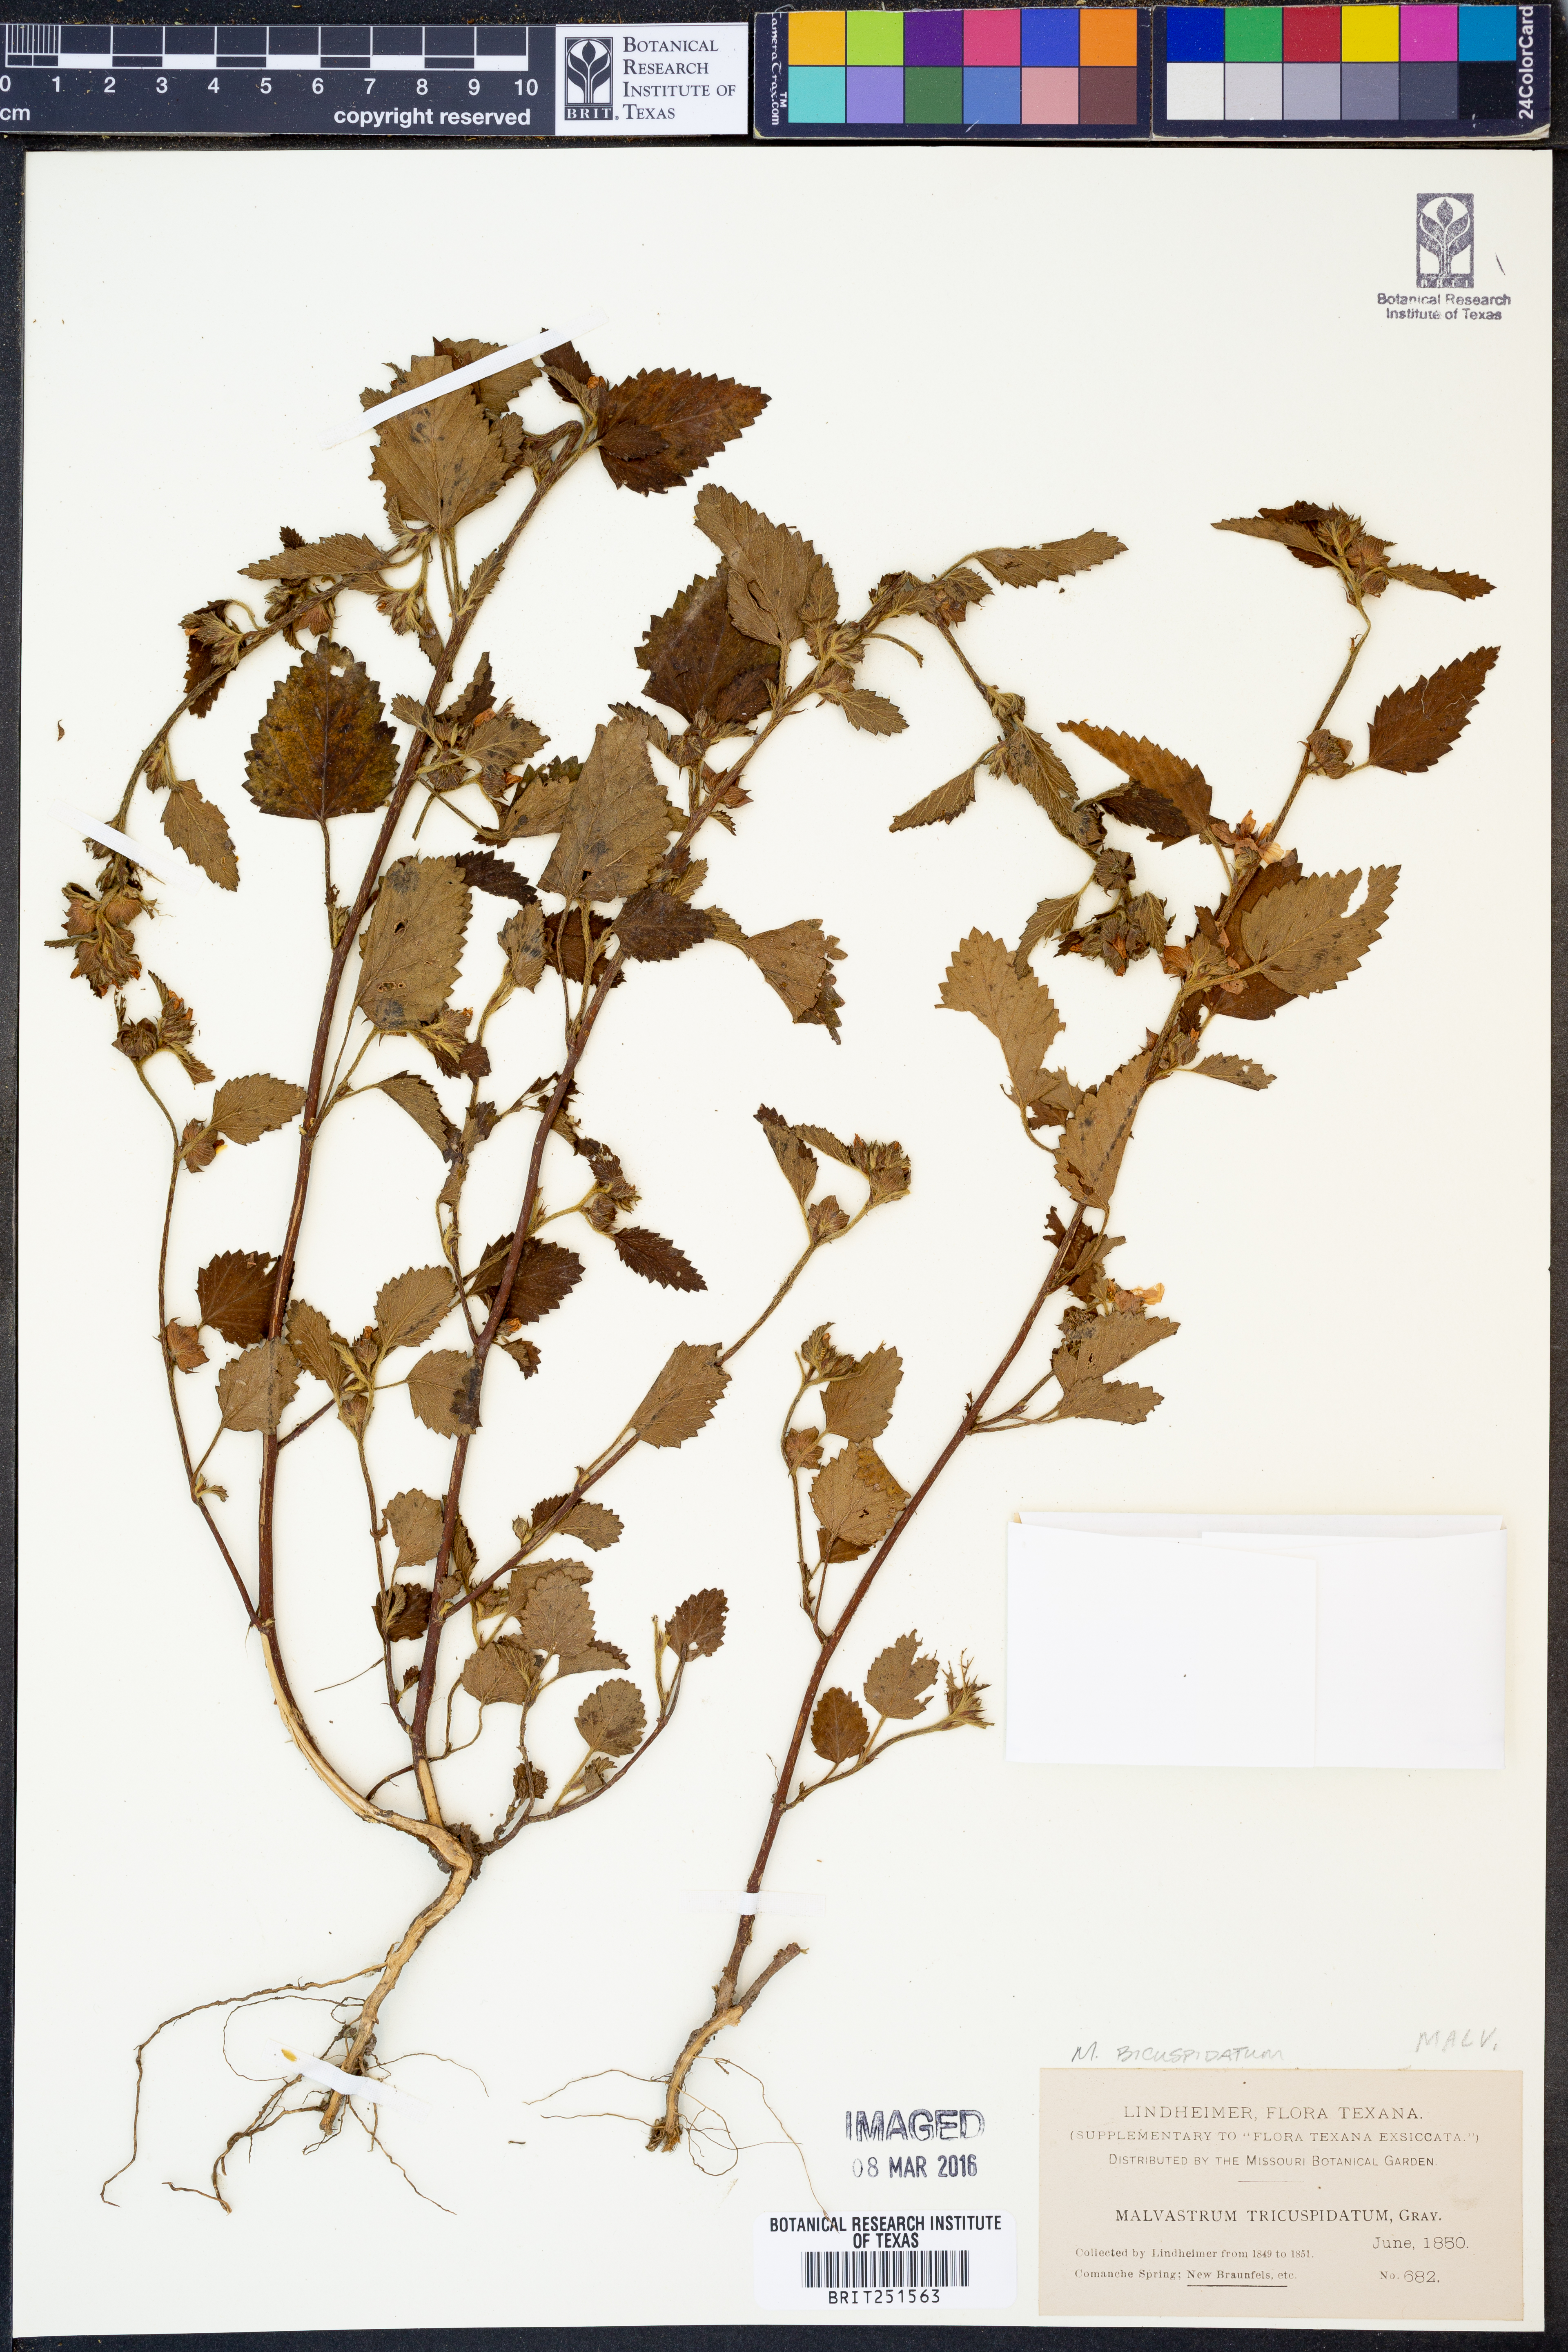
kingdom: Plantae
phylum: Tracheophyta
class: Magnoliopsida
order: Malvales
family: Malvaceae
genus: Malvastrum
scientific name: Malvastrum bicuspidatum
